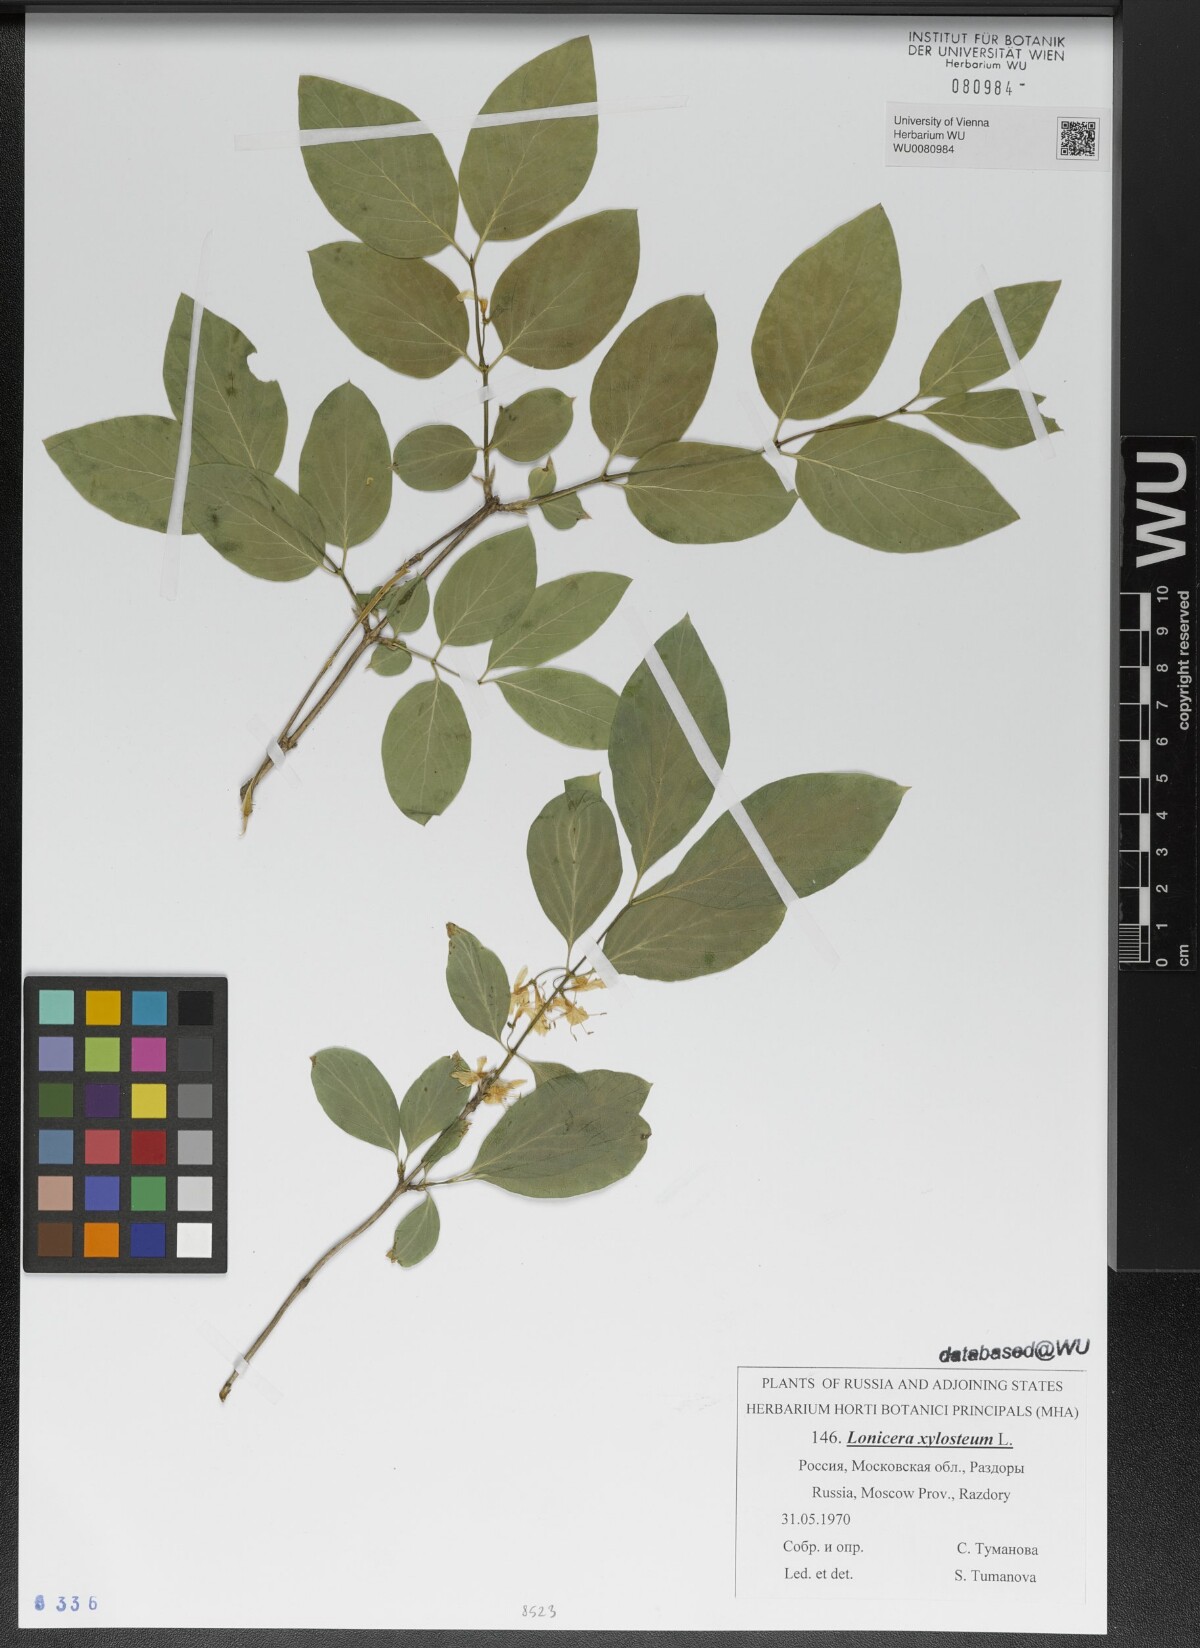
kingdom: Plantae
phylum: Tracheophyta
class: Magnoliopsida
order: Dipsacales
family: Caprifoliaceae
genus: Lonicera
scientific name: Lonicera xylosteum
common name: Fly honeysuckle
